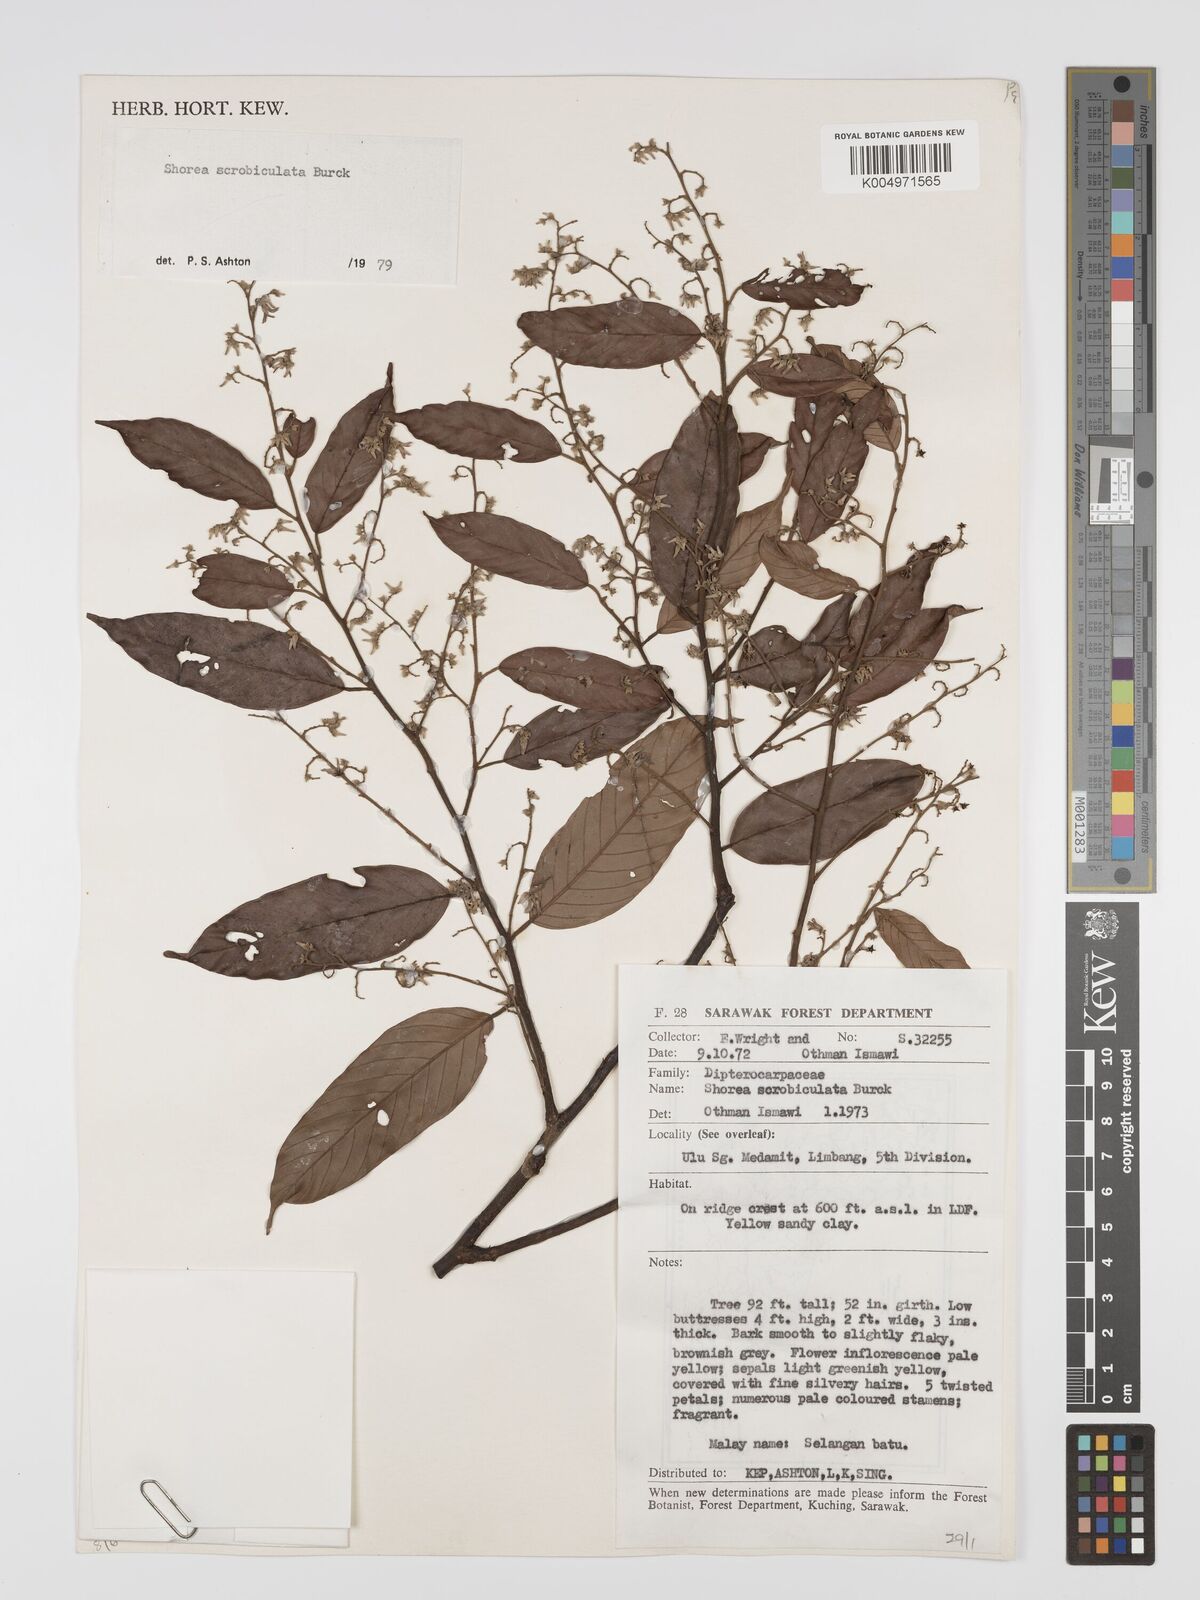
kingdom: Plantae
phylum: Tracheophyta
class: Magnoliopsida
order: Malvales
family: Dipterocarpaceae
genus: Shorea
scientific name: Shorea scrobiculata
